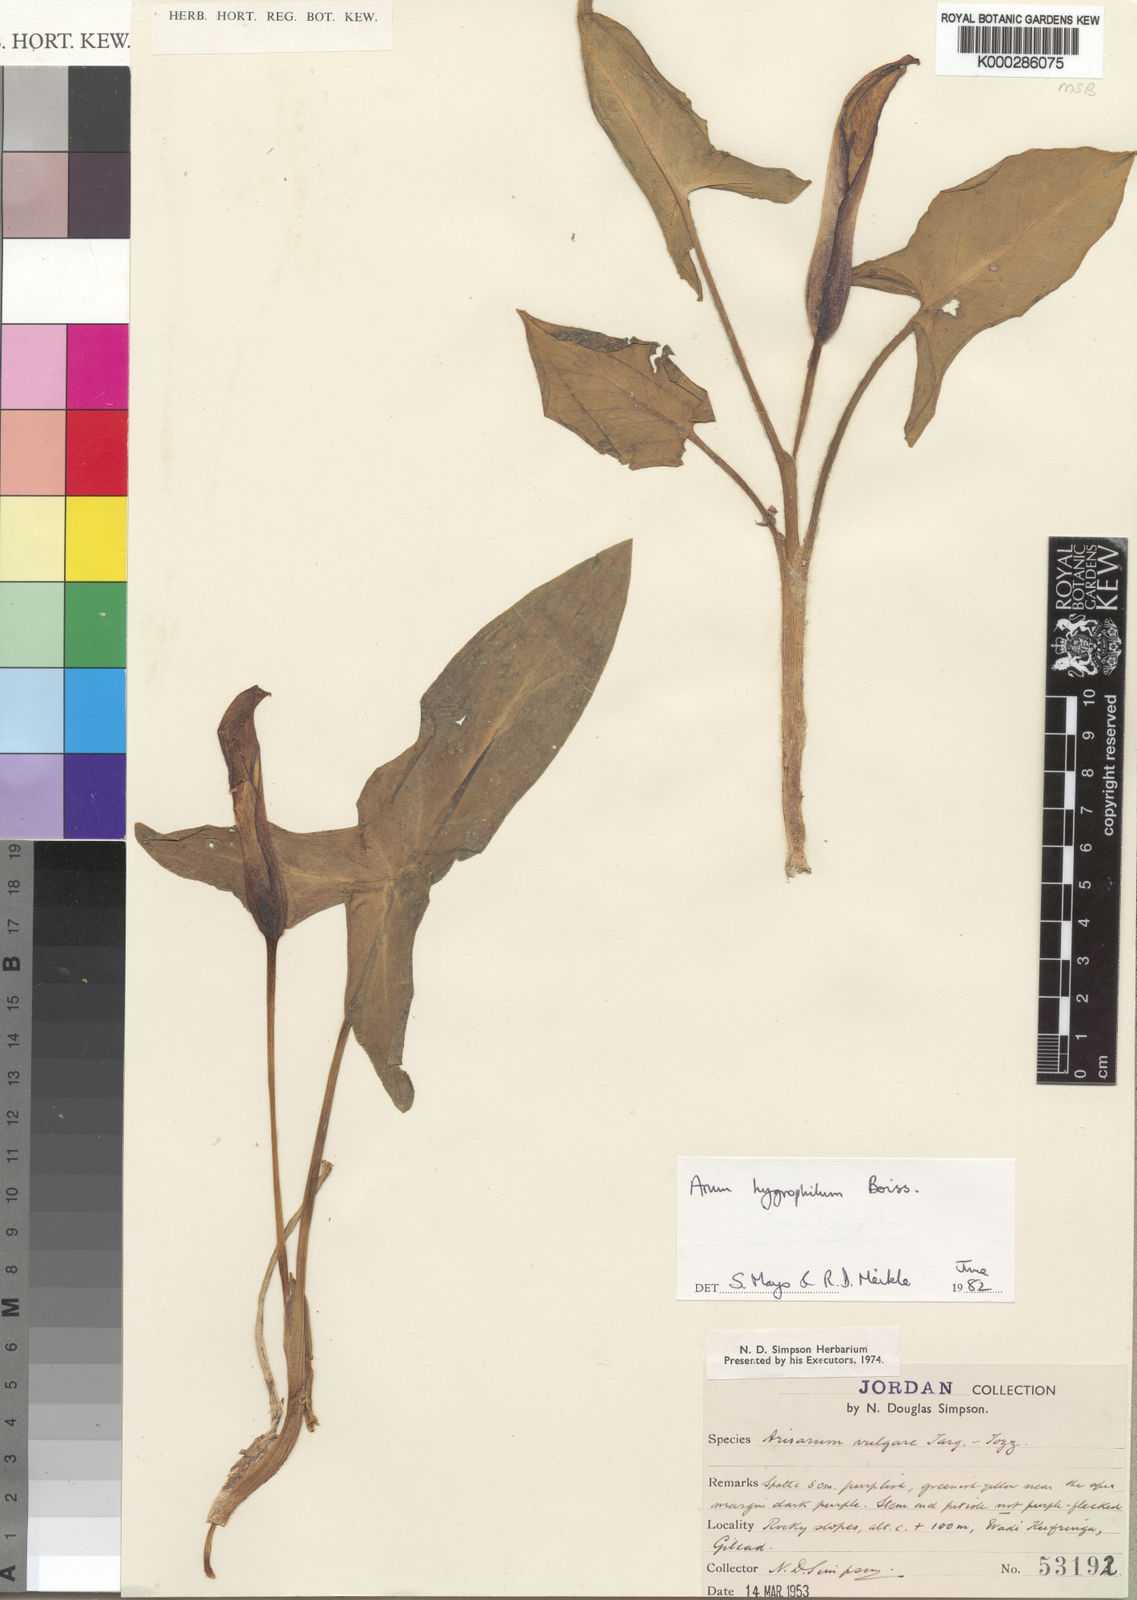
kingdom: Plantae
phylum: Tracheophyta
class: Liliopsida
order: Alismatales
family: Araceae
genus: Arum
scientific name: Arum hygrophilum
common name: Water arum
